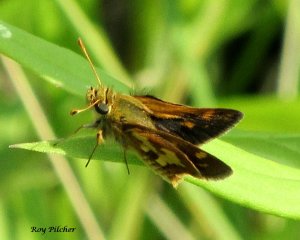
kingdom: Animalia
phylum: Arthropoda
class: Insecta
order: Lepidoptera
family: Hesperiidae
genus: Polites
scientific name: Polites coras
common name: Peck's Skipper
